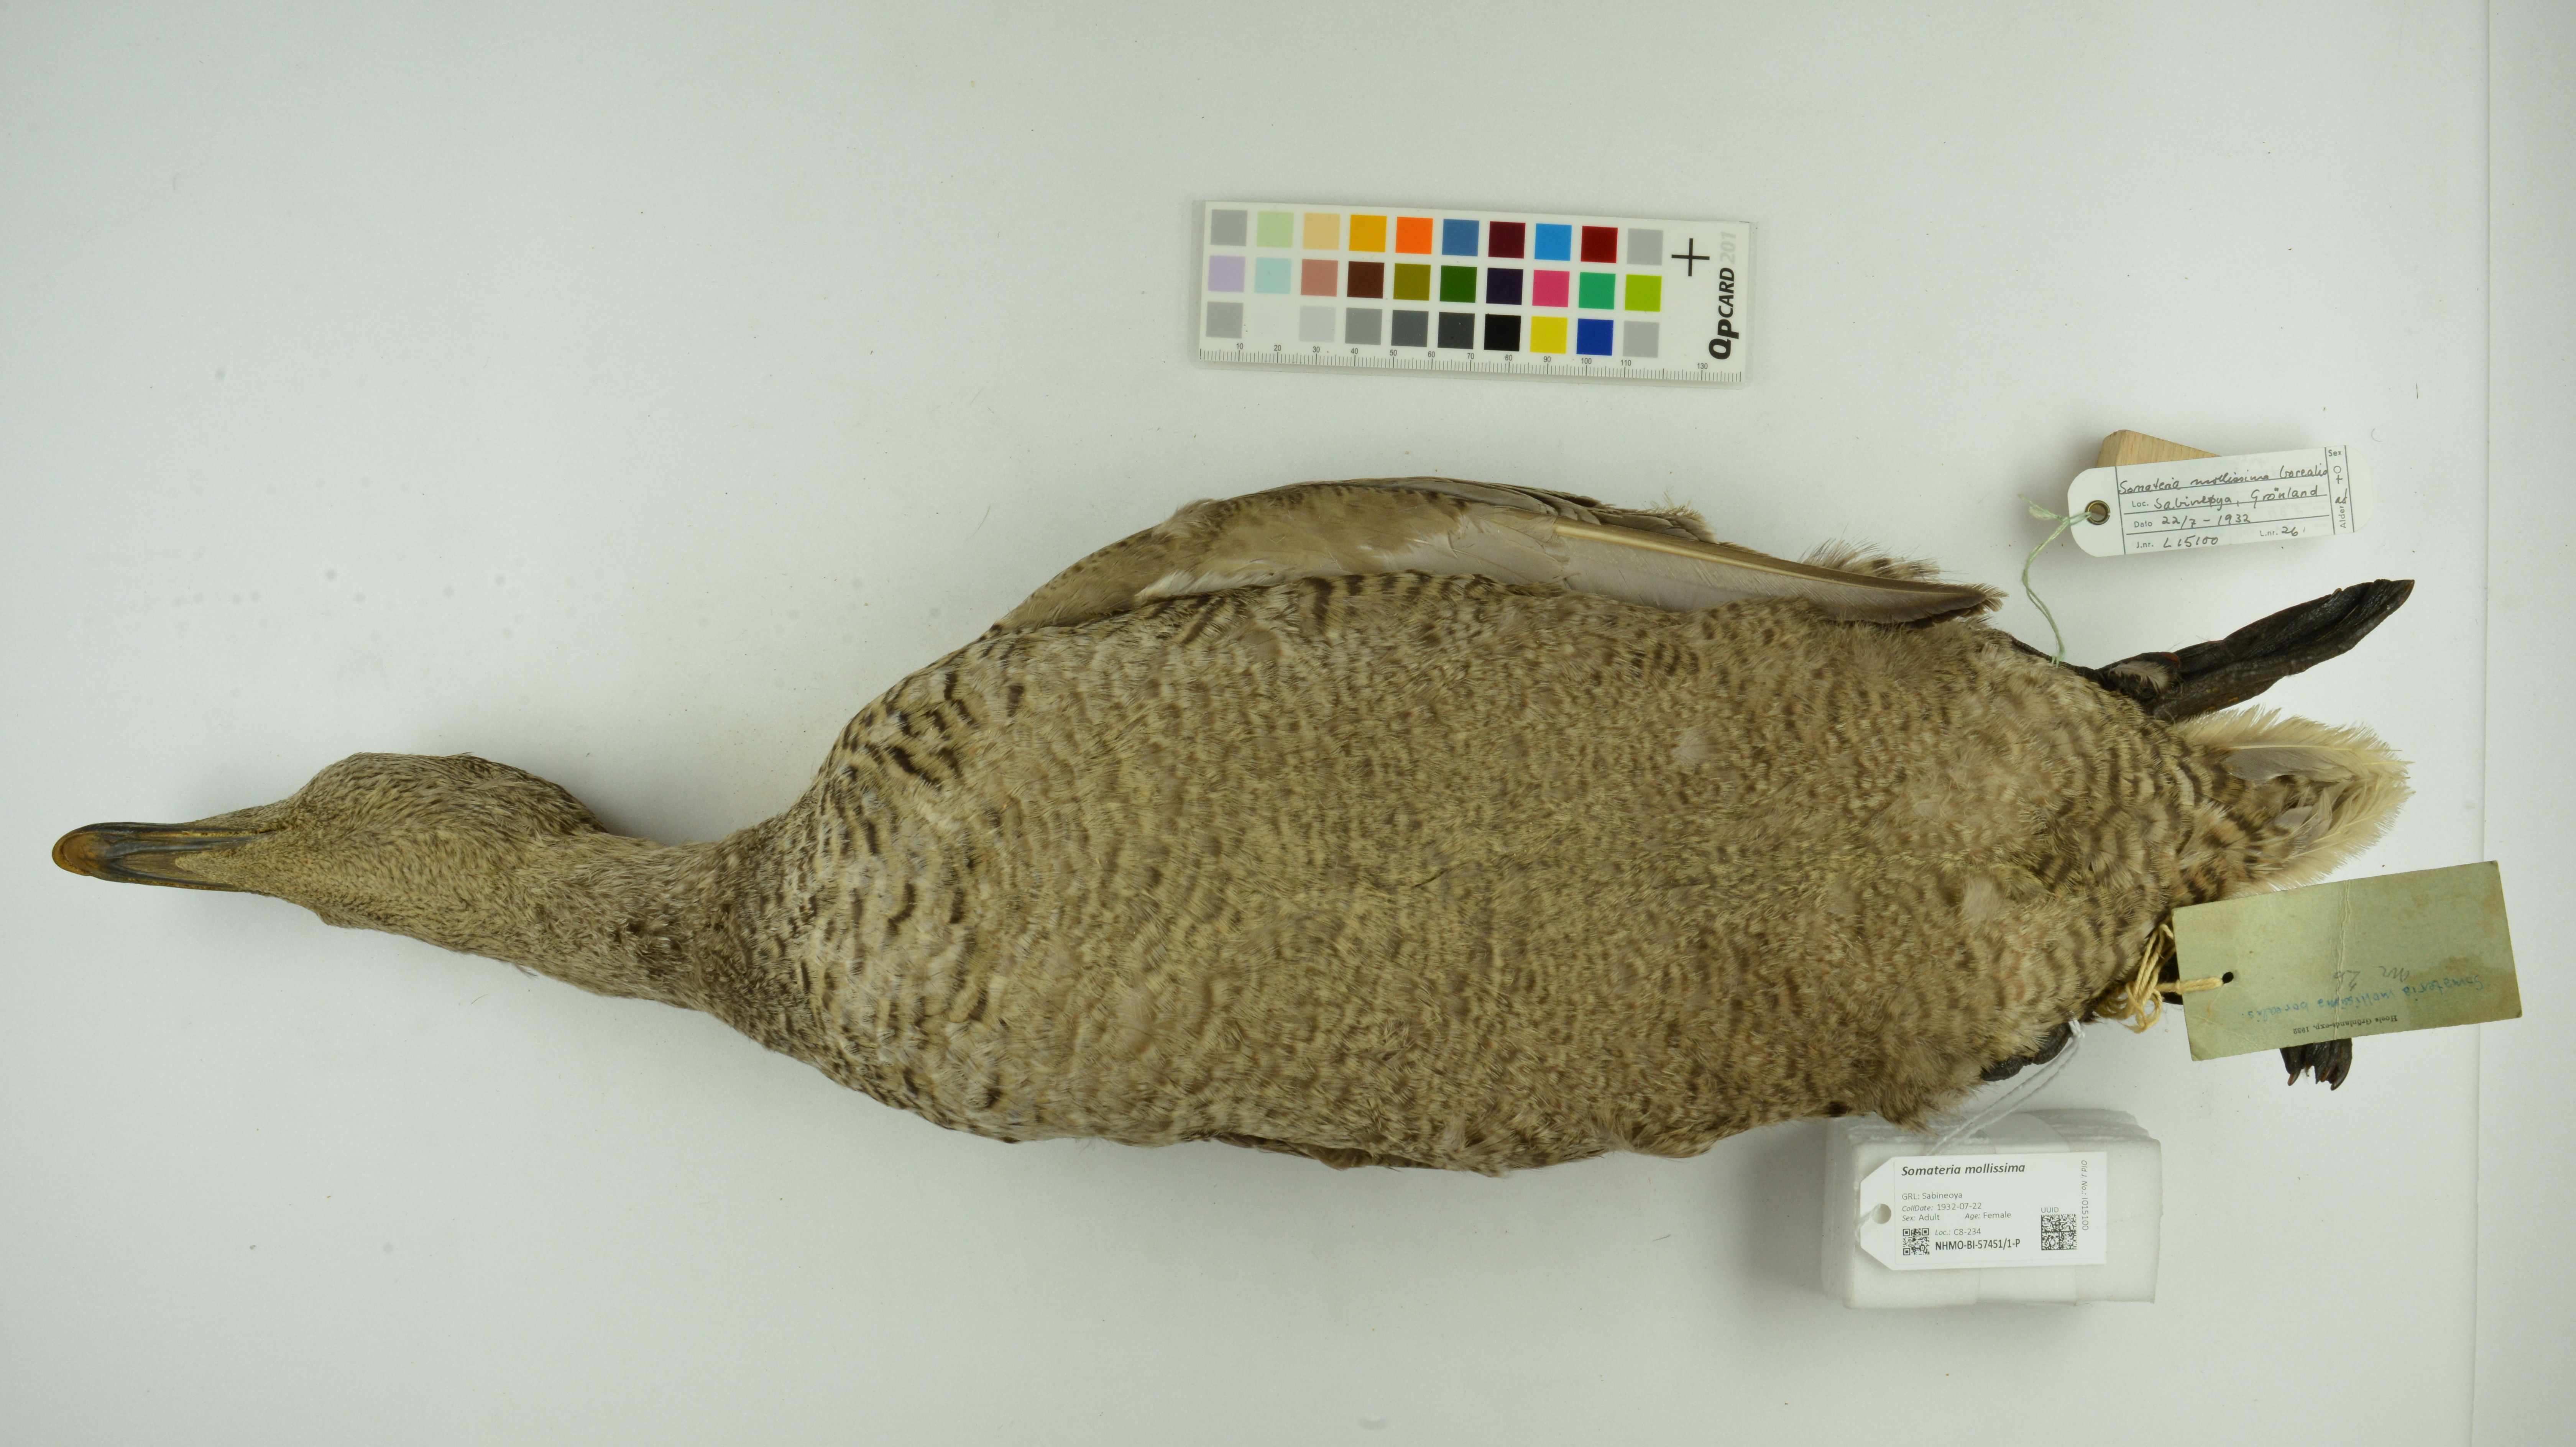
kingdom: Animalia
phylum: Chordata
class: Aves
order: Anseriformes
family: Anatidae
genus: Somateria
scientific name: Somateria mollissima
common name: Common eider
